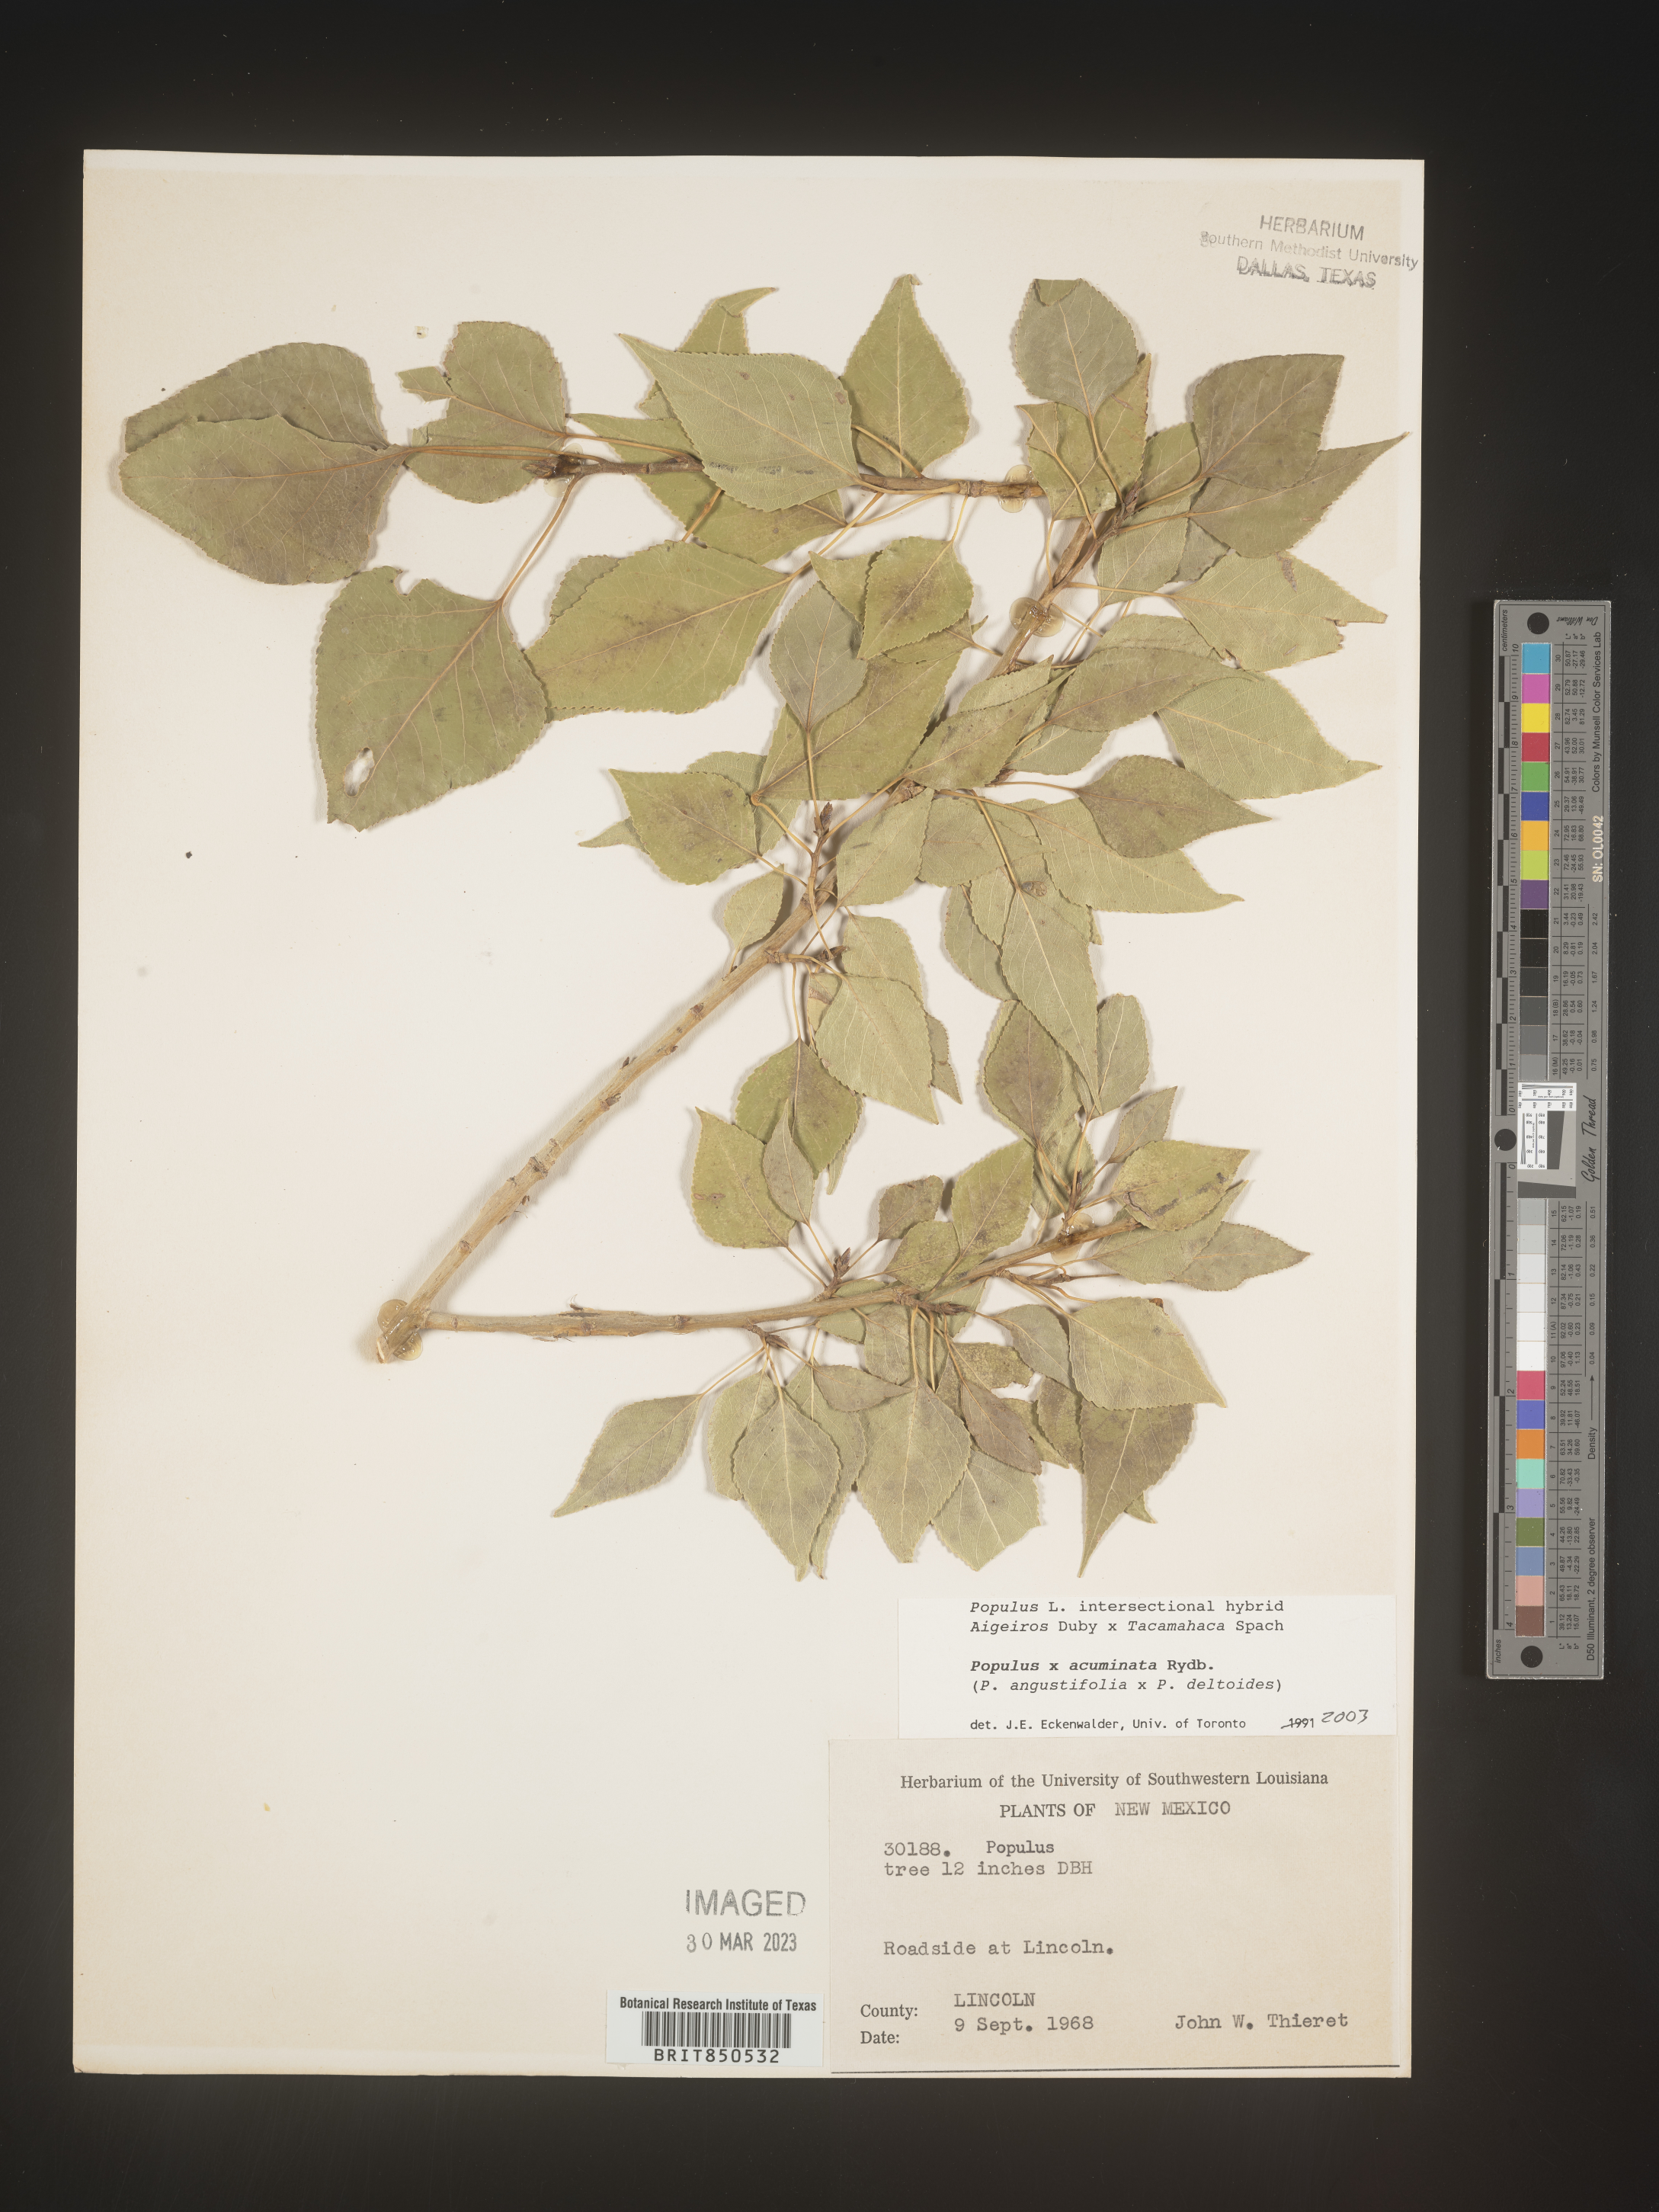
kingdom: Plantae
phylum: Tracheophyta
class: Magnoliopsida
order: Malpighiales
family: Salicaceae
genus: Populus
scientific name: Populus trichocarpa
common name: Black cottonwood
